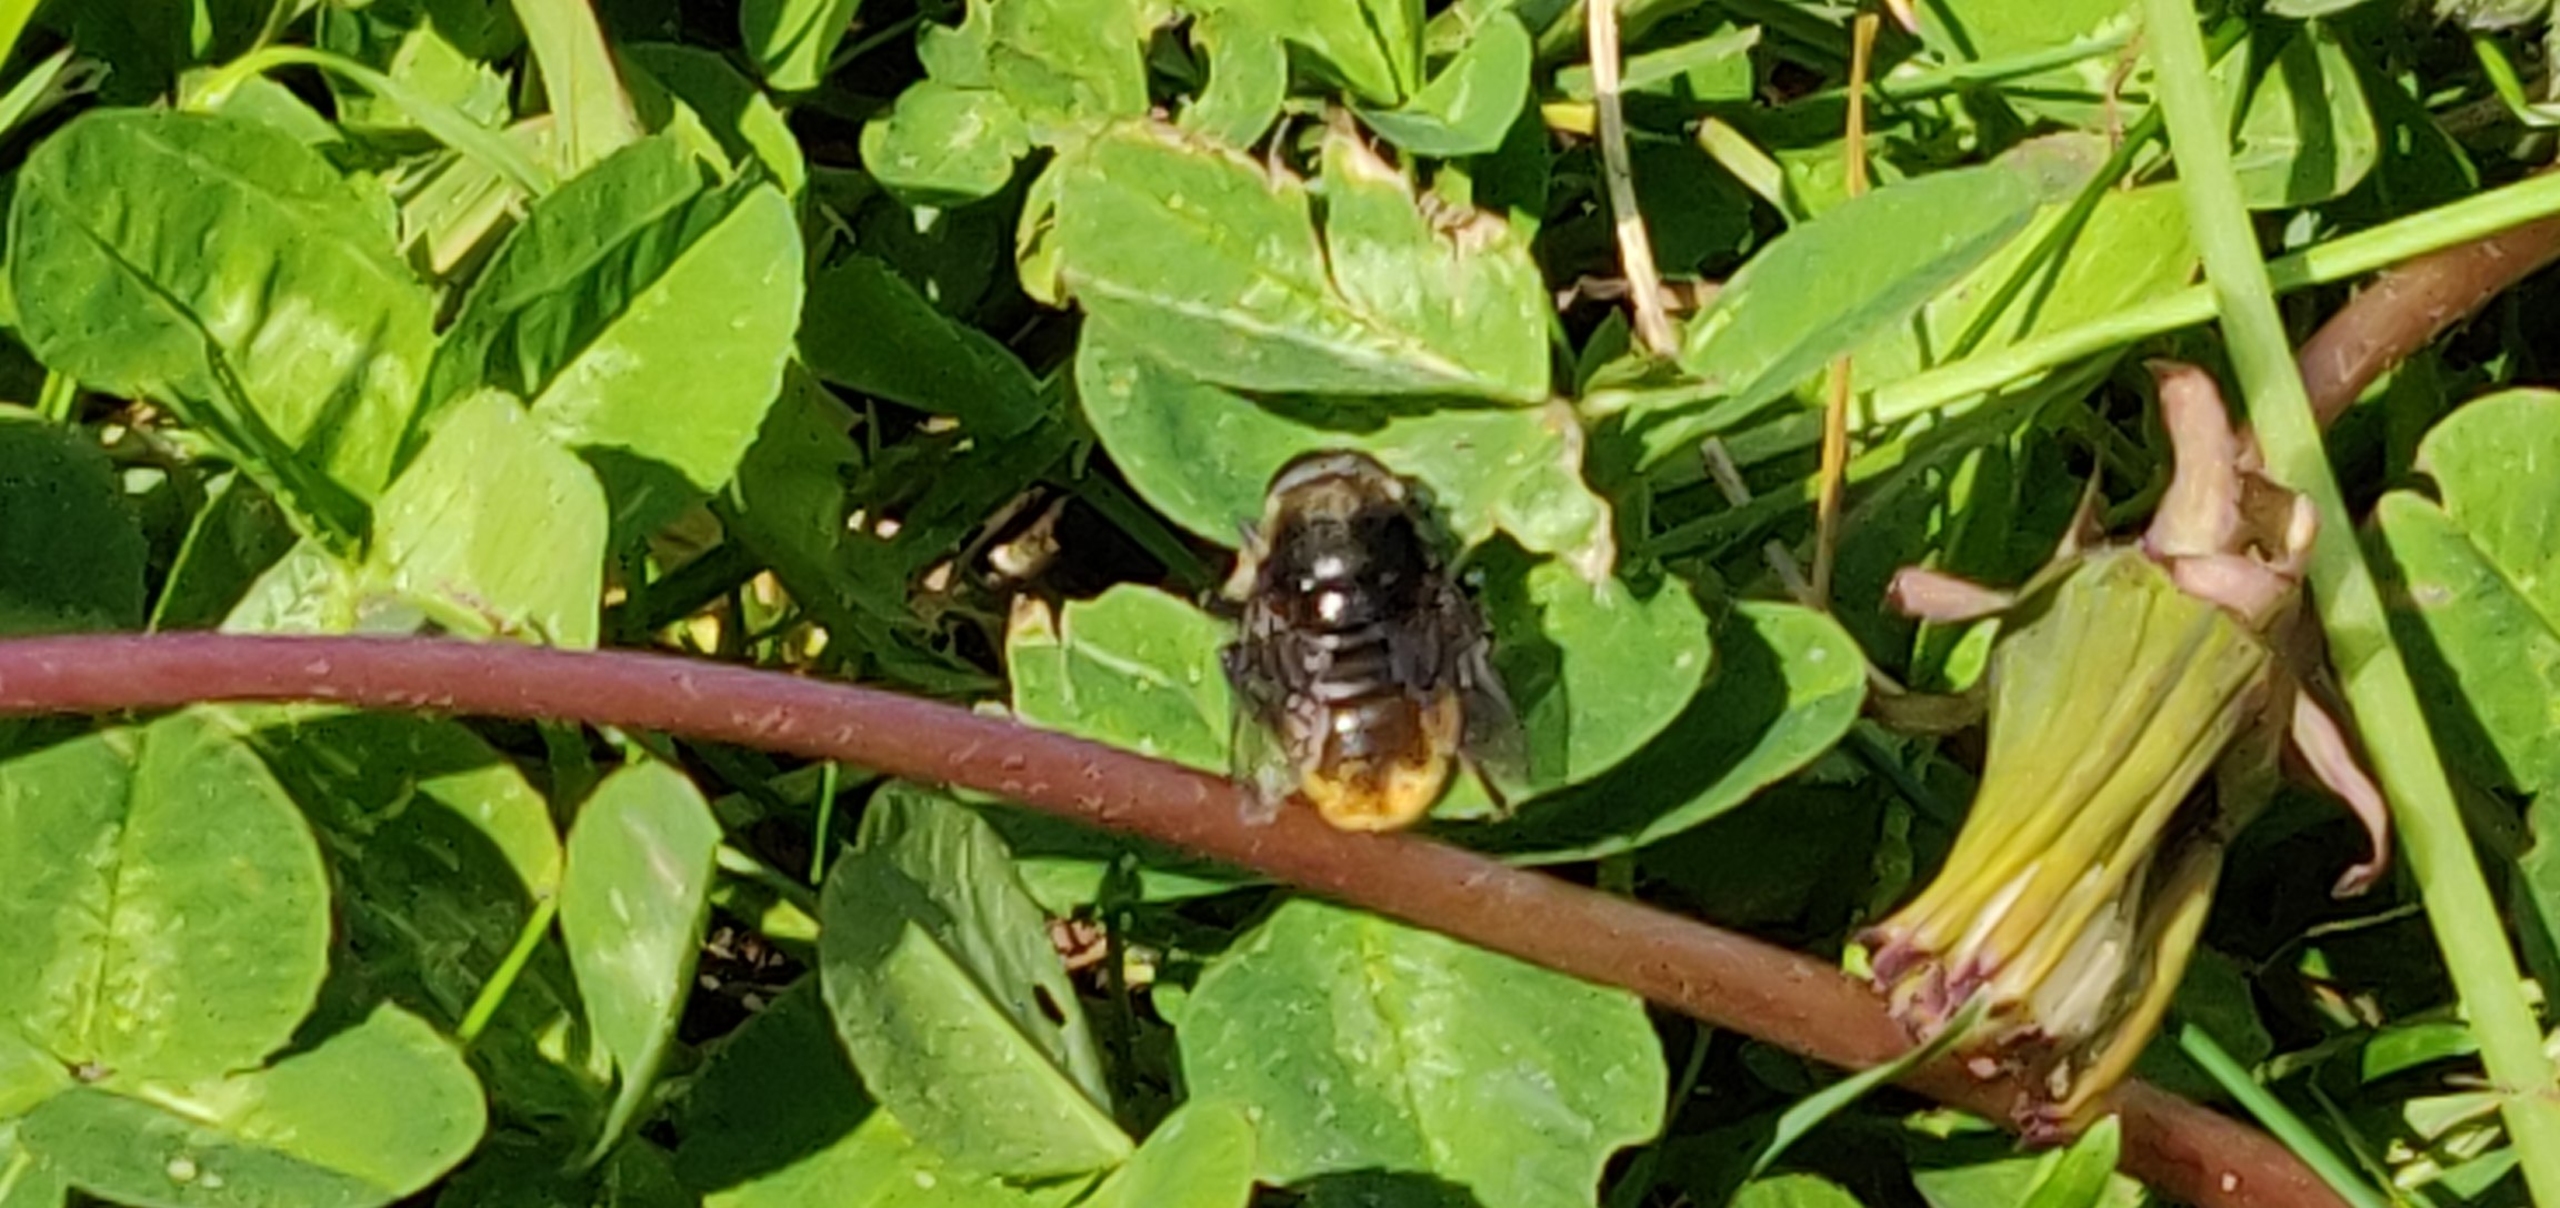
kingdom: Animalia
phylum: Arthropoda
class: Insecta
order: Diptera
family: Syrphidae
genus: Merodon
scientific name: Merodon equestris
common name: Stor narcisflue
